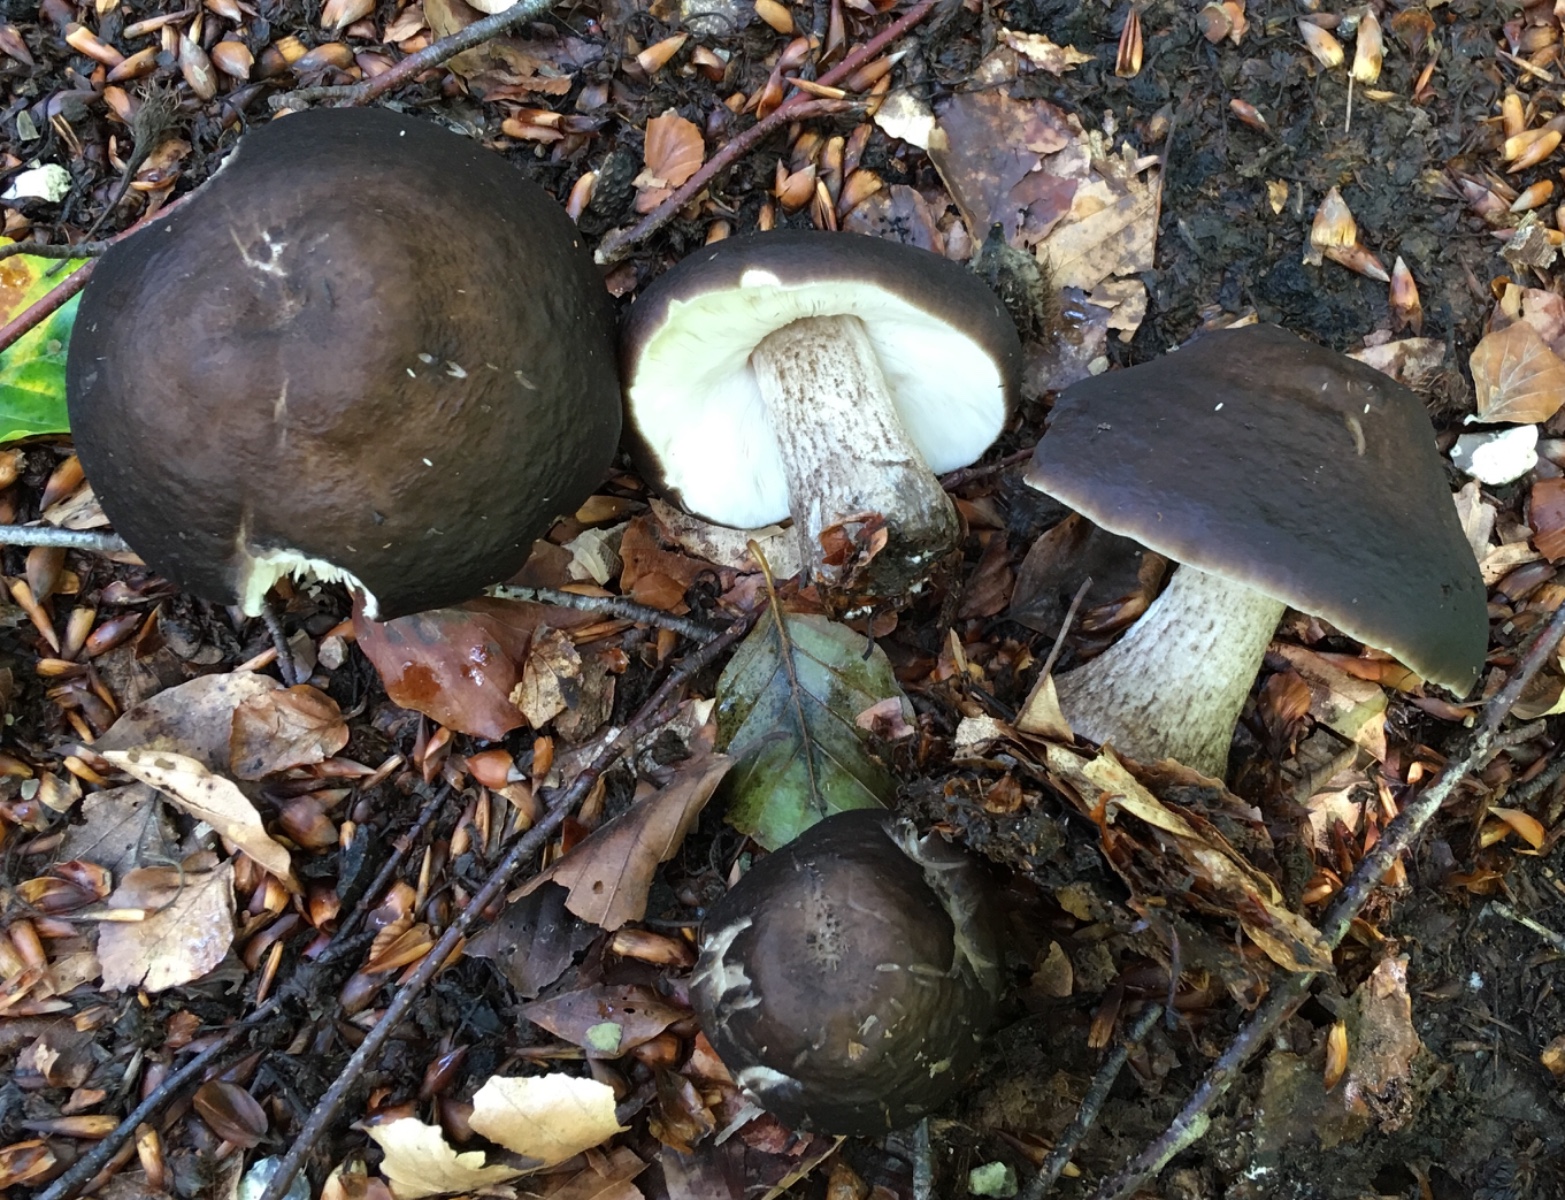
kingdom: Fungi
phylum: Basidiomycota
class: Agaricomycetes
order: Agaricales
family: Pluteaceae
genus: Pluteus
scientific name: Pluteus cervinus
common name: sodfarvet skærmhat
